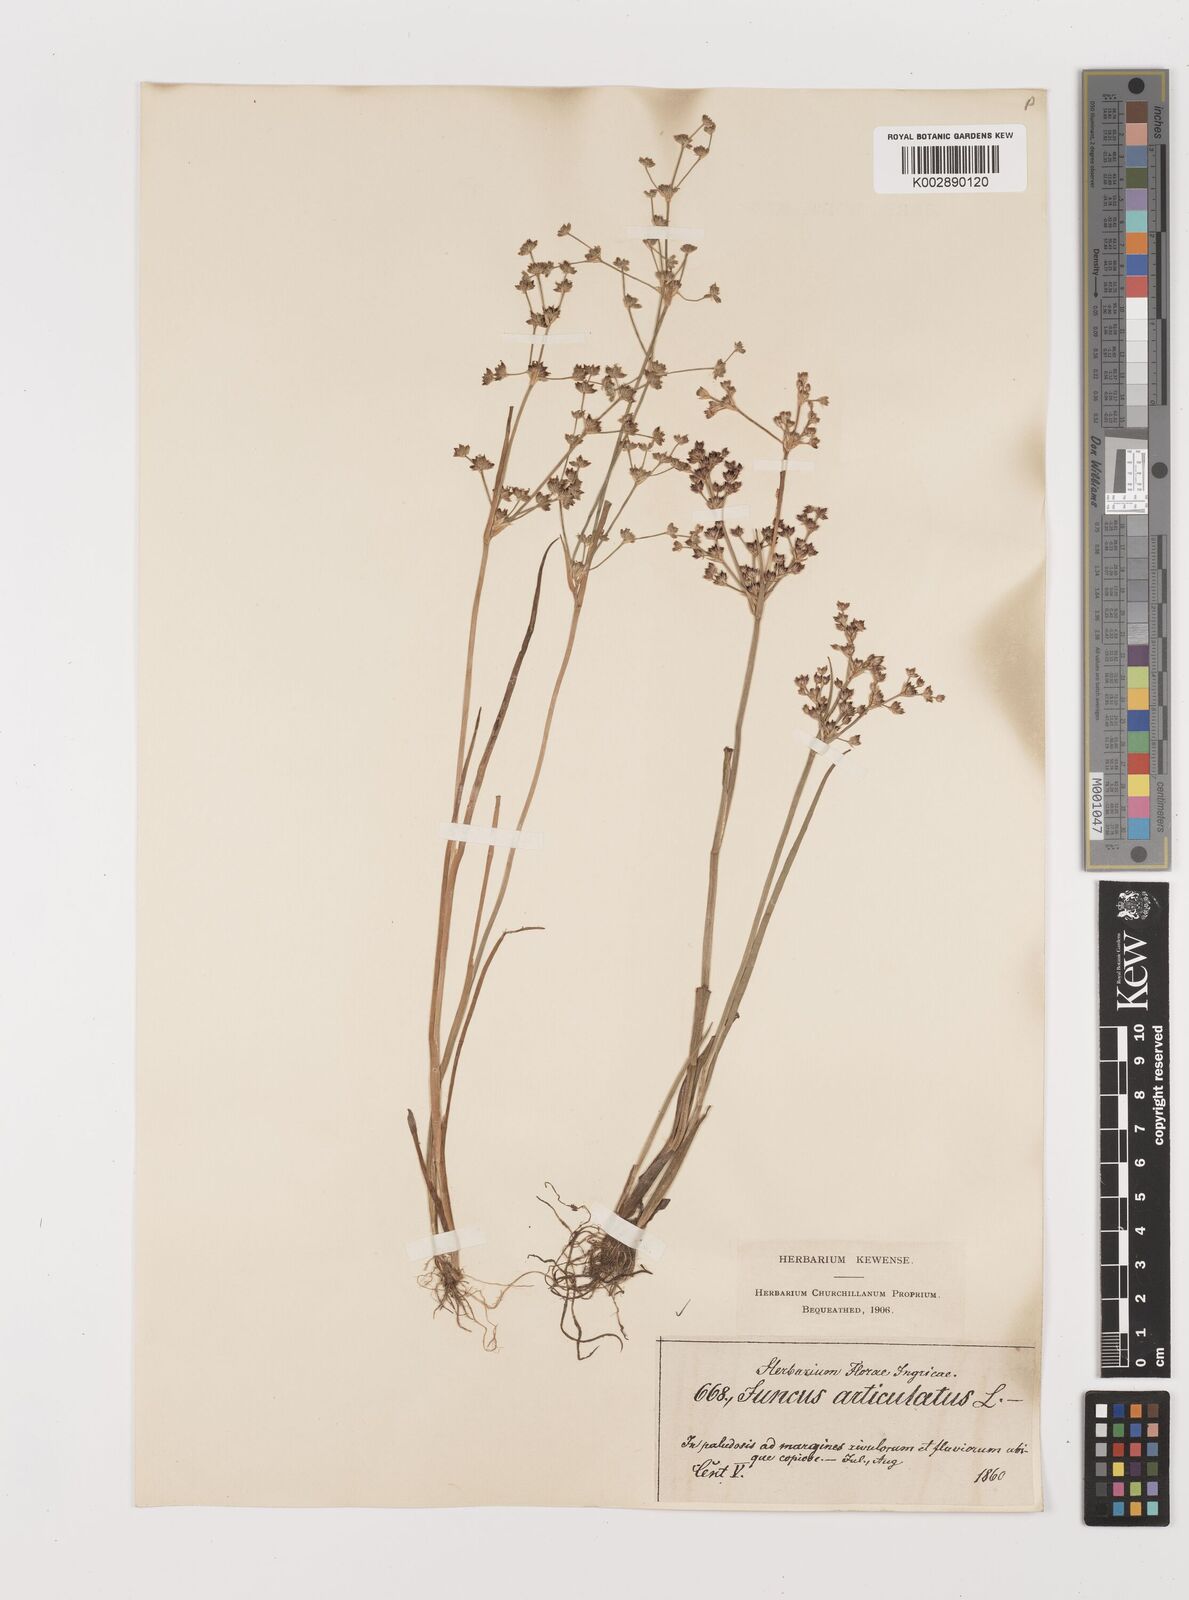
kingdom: Plantae
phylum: Tracheophyta
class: Liliopsida
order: Poales
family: Juncaceae
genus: Juncus
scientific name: Juncus articulatus
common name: Jointed rush
